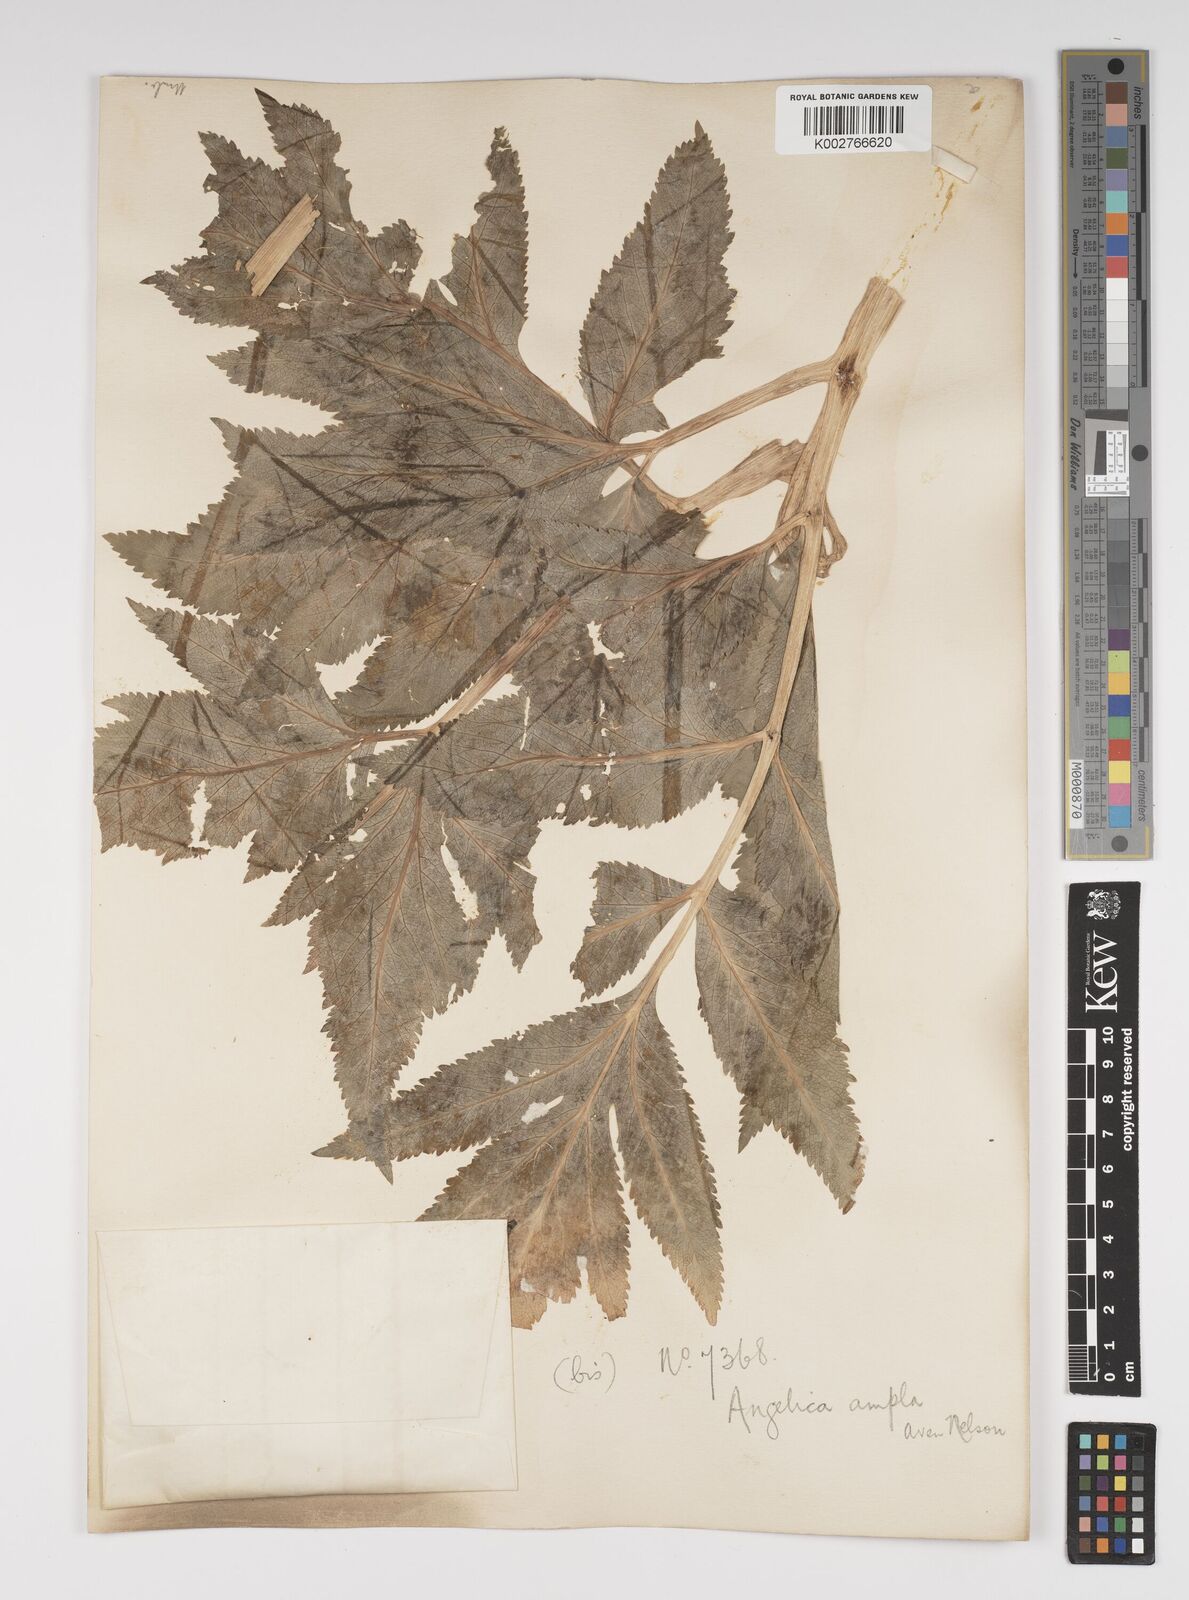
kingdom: Plantae
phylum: Tracheophyta
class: Magnoliopsida
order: Apiales
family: Apiaceae
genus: Angelica
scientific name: Angelica ampla
